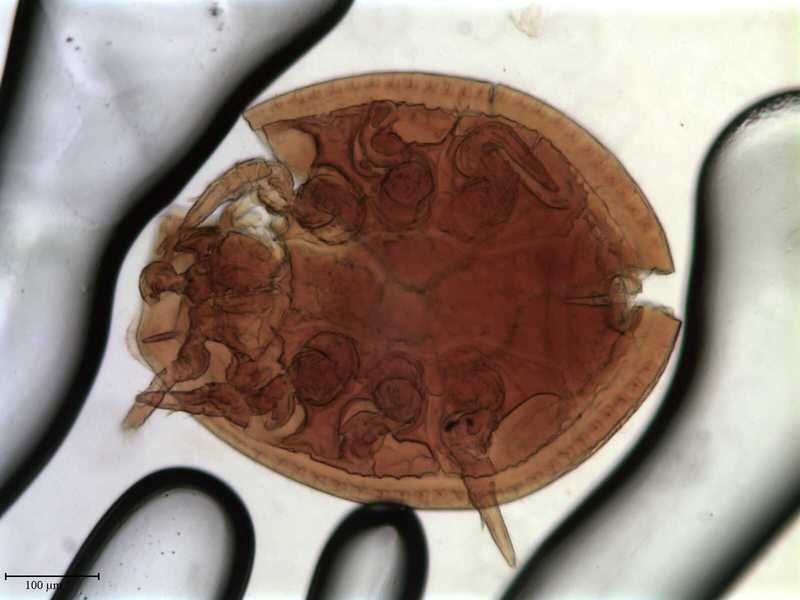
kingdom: Animalia
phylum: Arthropoda
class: Arachnida
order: Mesostigmata
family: Uropodidae
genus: Uropoda
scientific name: Uropoda
